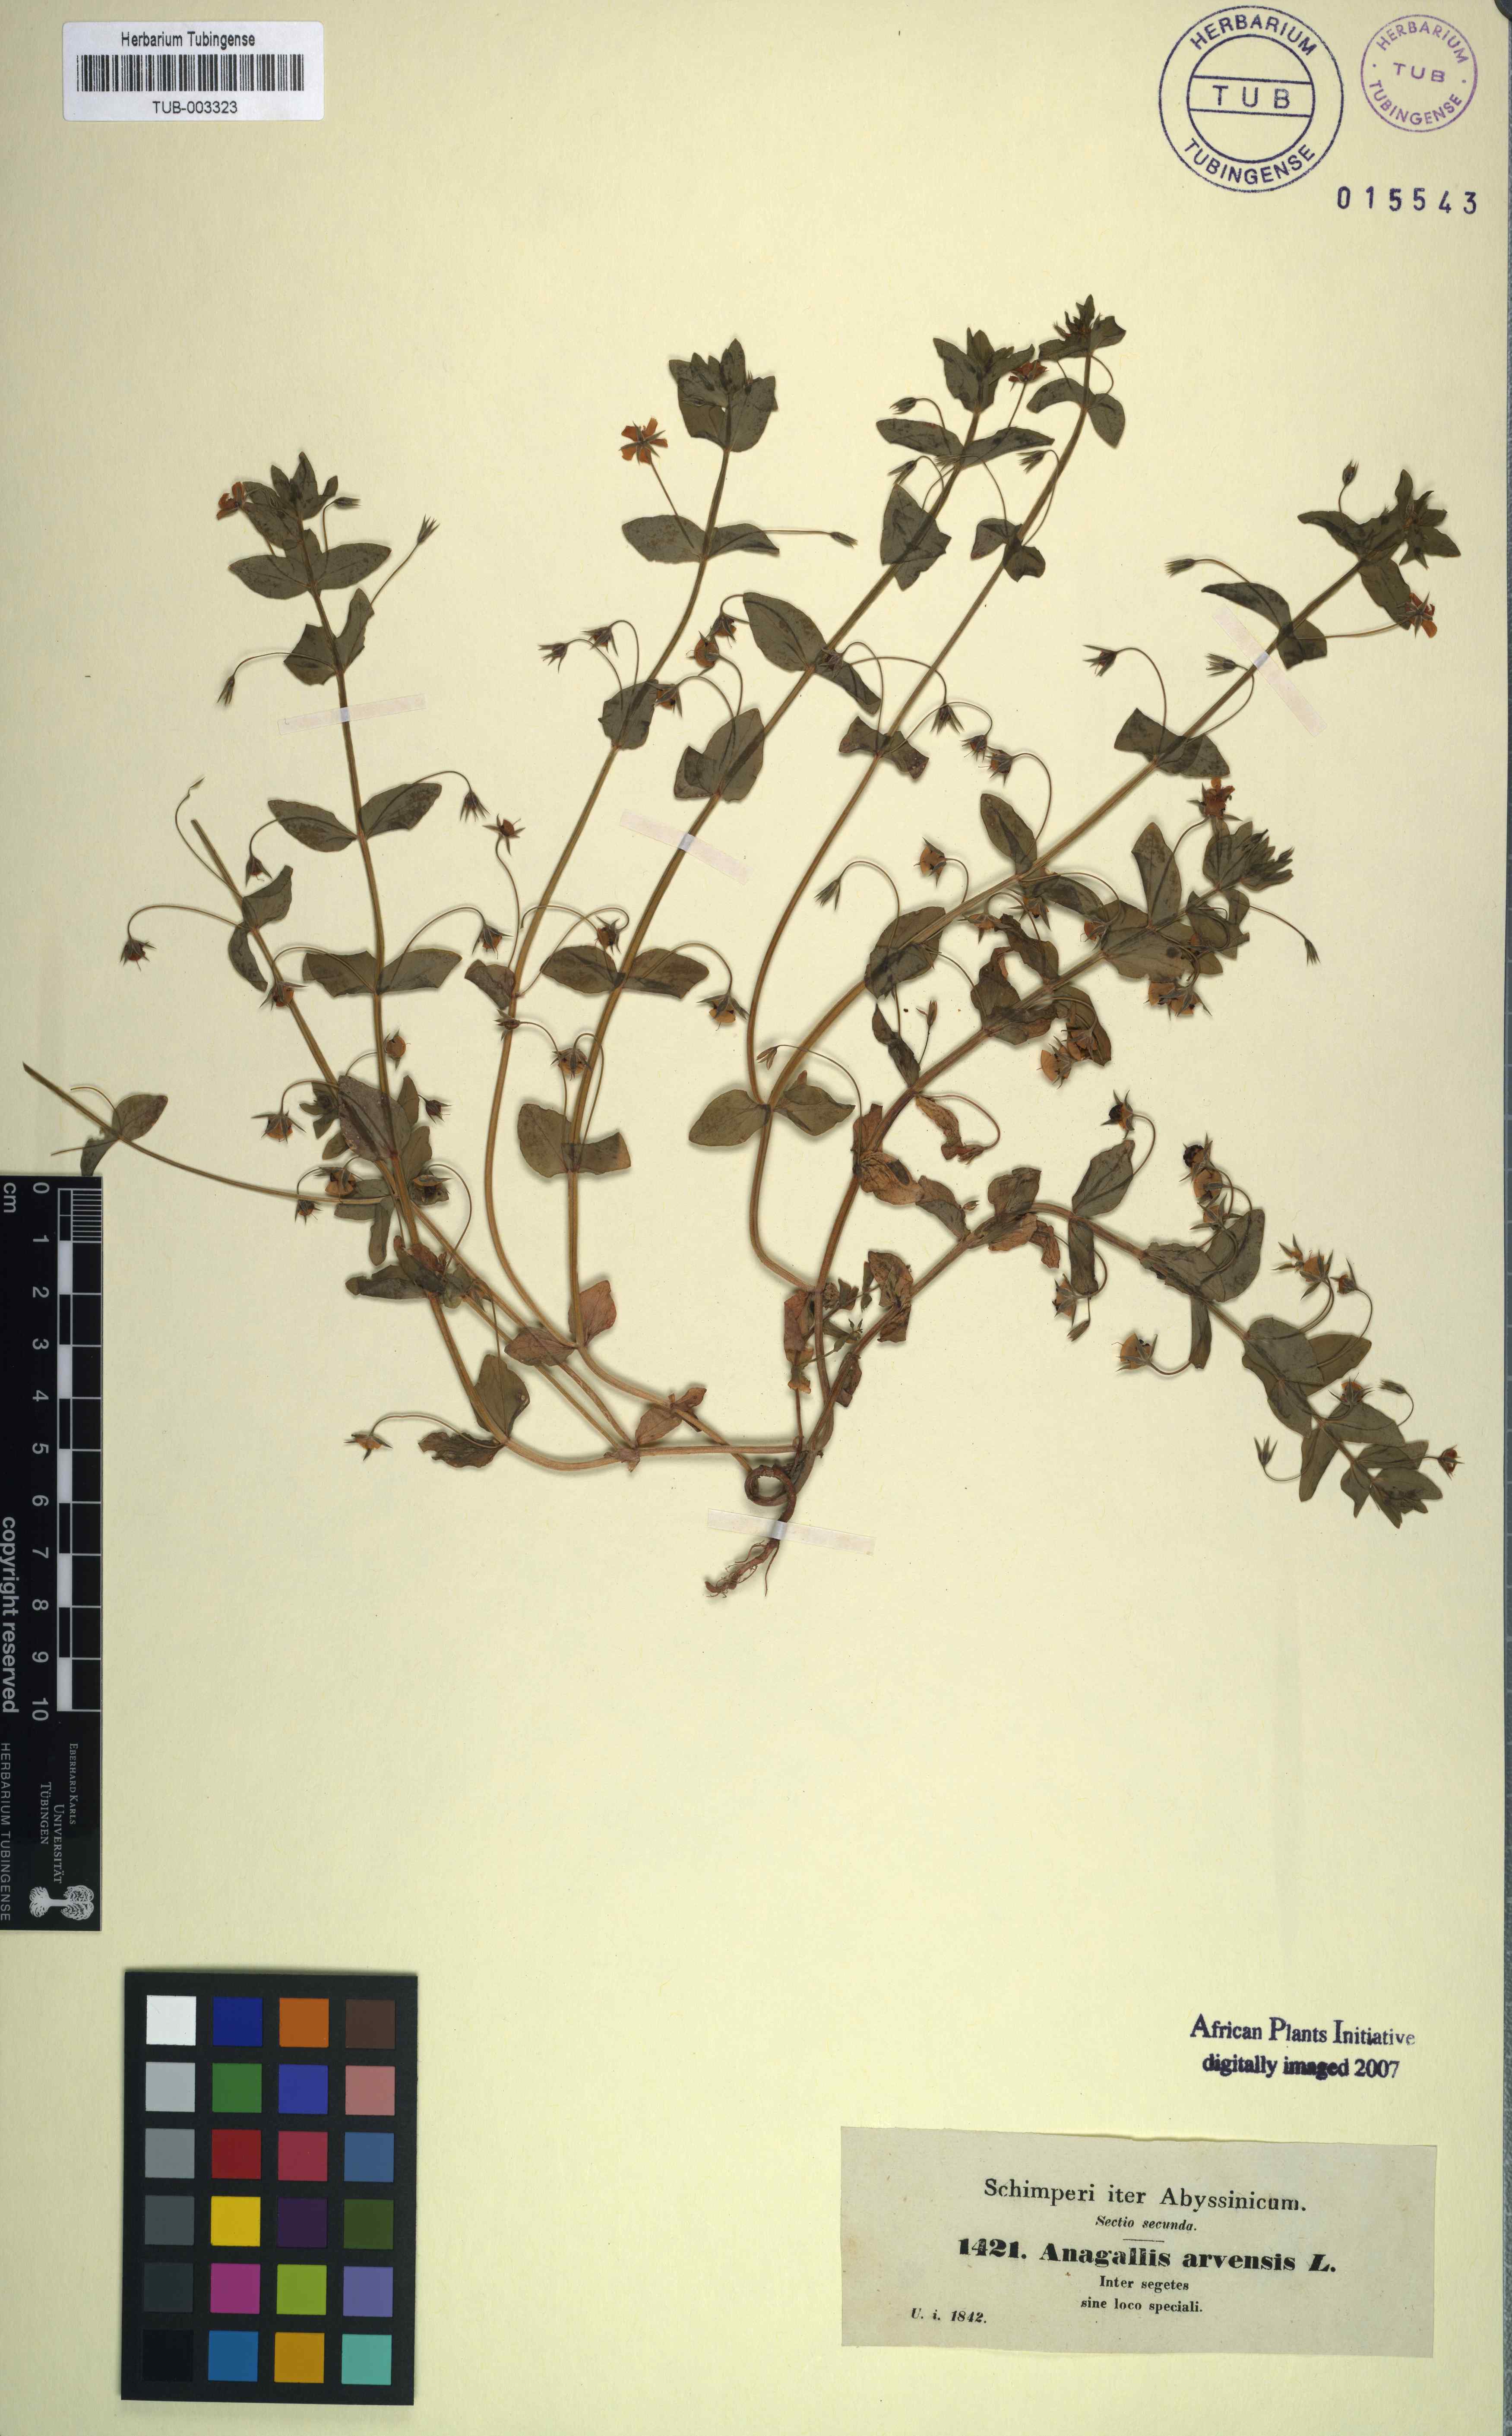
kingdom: Plantae
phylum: Tracheophyta
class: Magnoliopsida
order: Ericales
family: Primulaceae
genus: Lysimachia
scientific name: Lysimachia arvensis
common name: Scarlet pimpernel
